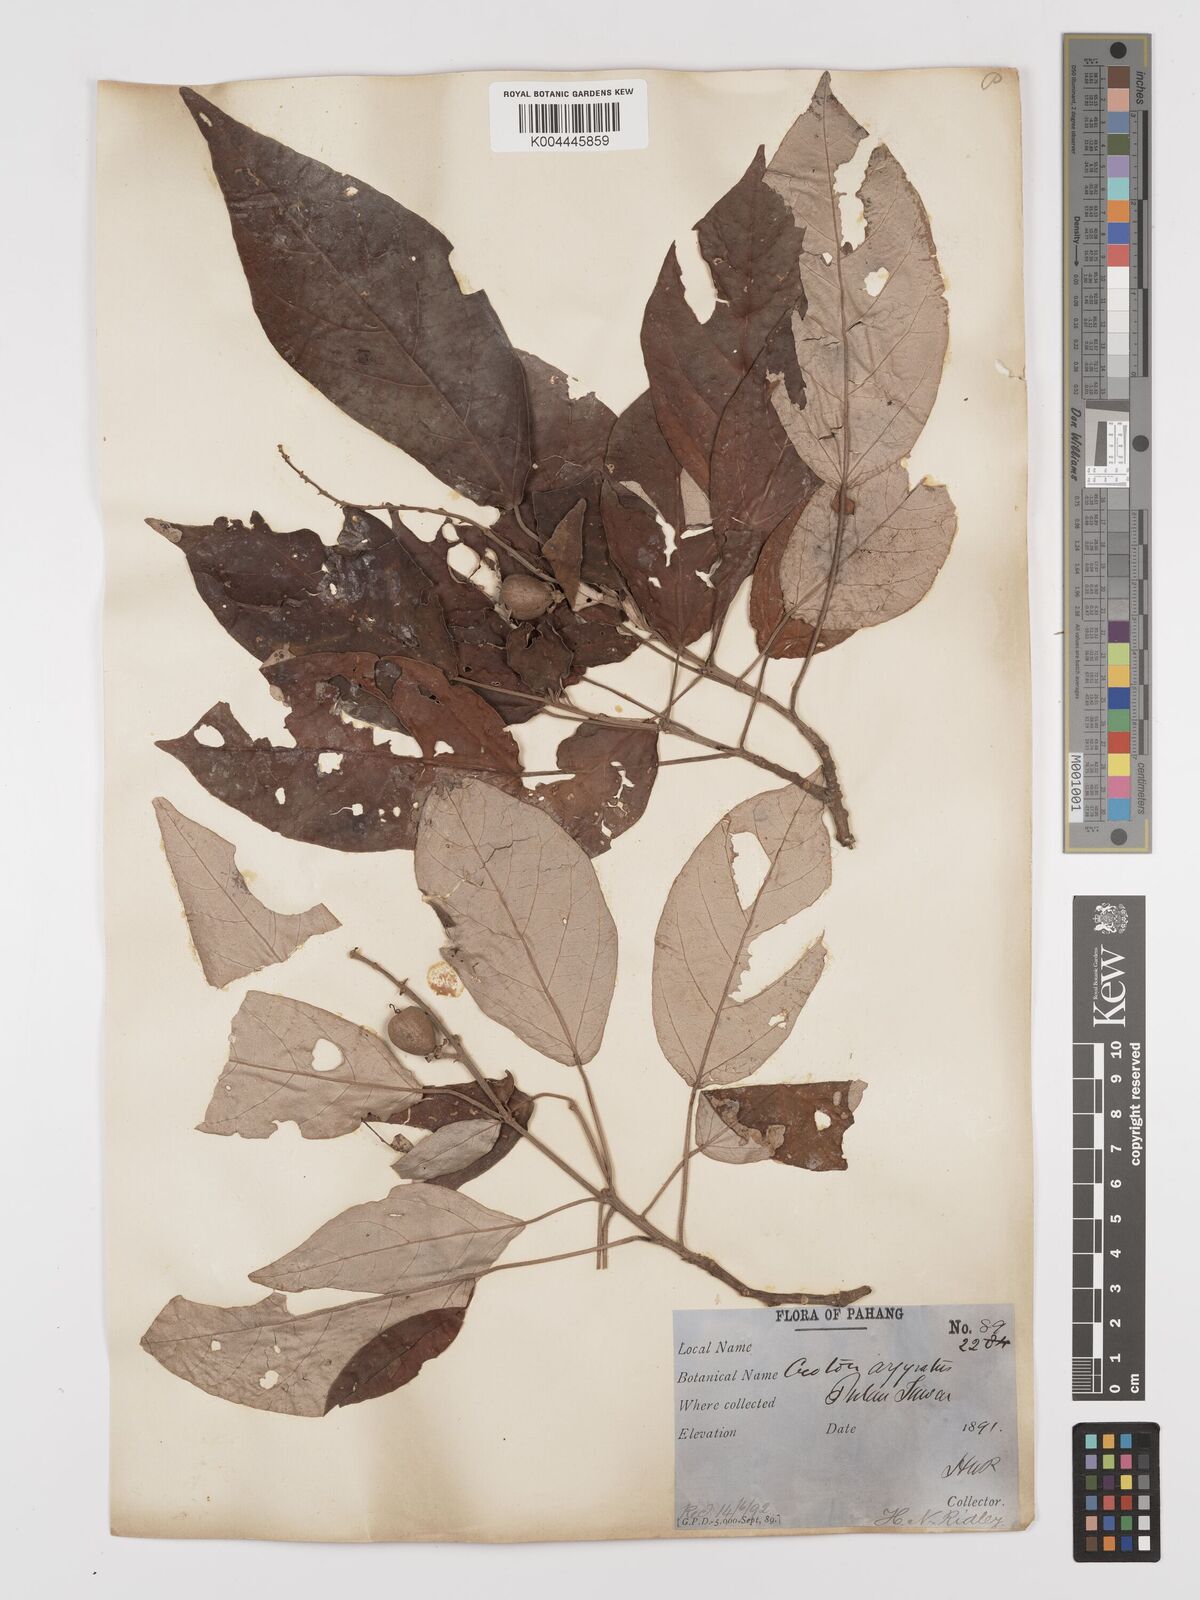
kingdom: Plantae
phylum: Tracheophyta
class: Magnoliopsida
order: Malpighiales
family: Euphorbiaceae
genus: Croton
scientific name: Croton argyratus
